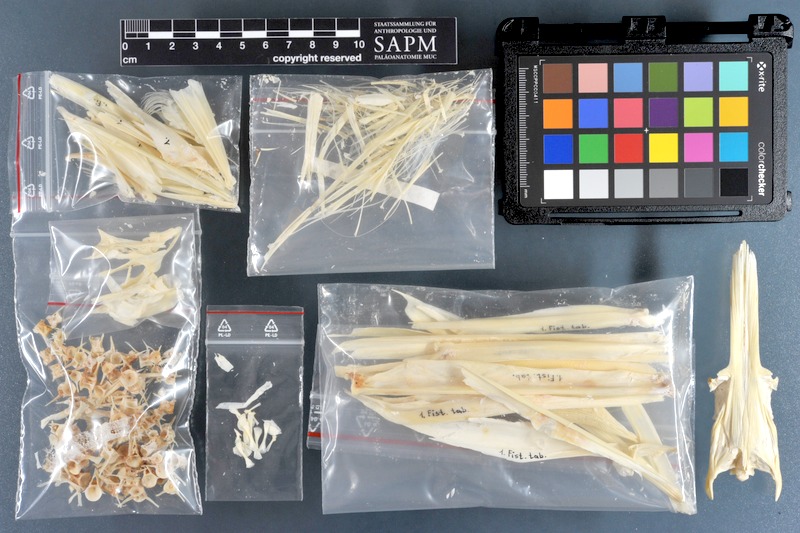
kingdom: Animalia
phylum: Chordata
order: Syngnathiformes
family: Fistulariidae
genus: Fistularia
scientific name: Fistularia tabacaria
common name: Blue-spotted cornetfish
